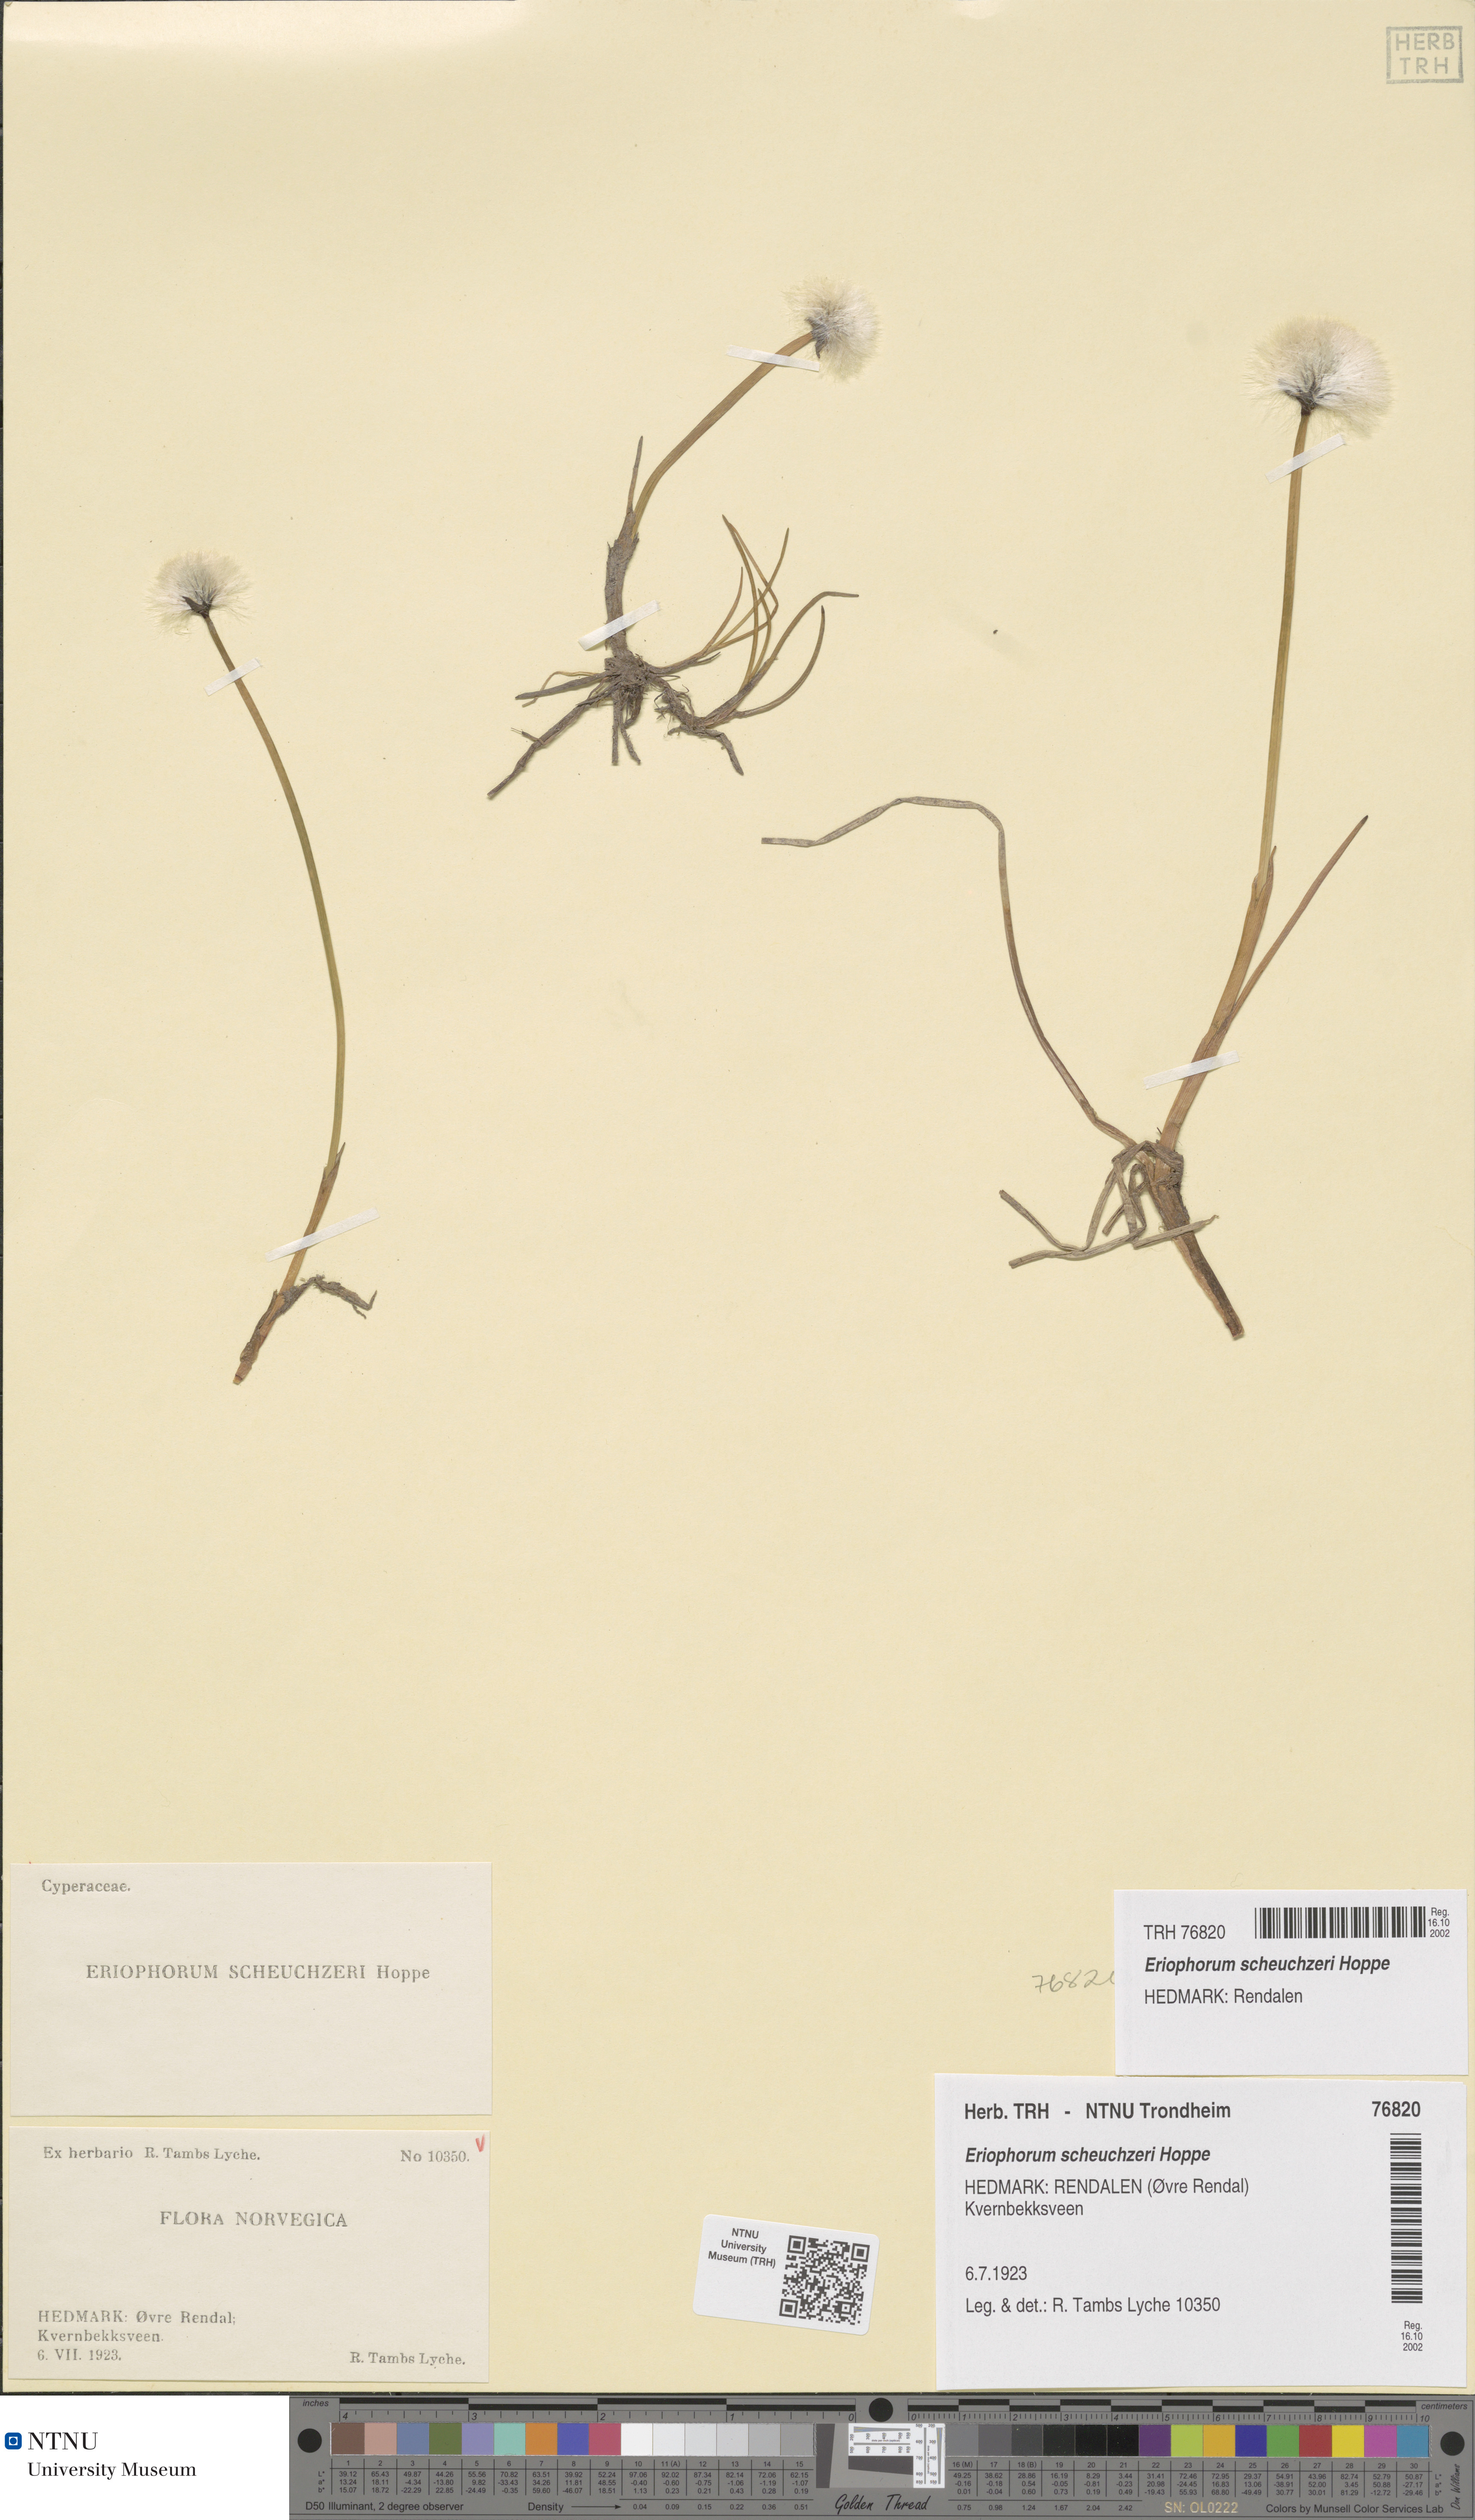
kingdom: Plantae
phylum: Tracheophyta
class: Liliopsida
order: Poales
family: Cyperaceae
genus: Eriophorum
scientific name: Eriophorum scheuchzeri
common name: Scheuchzer's cottongrass
